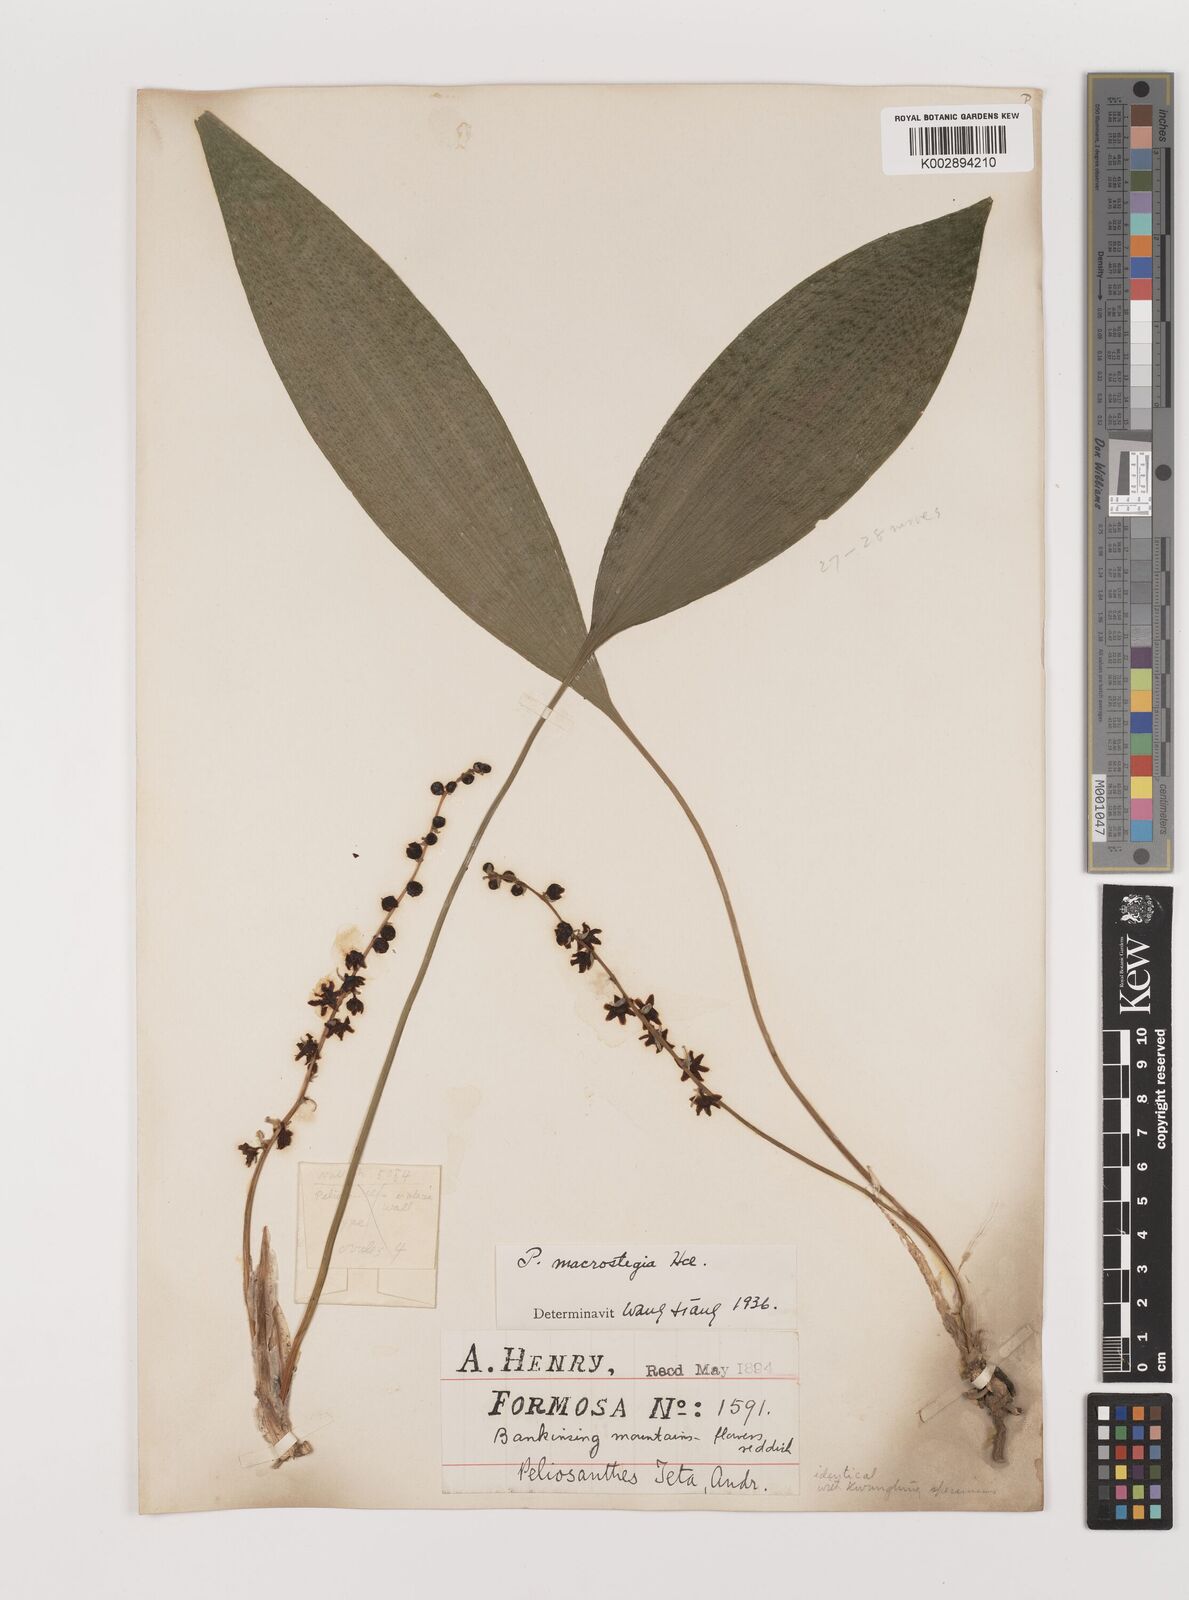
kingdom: Plantae
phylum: Tracheophyta
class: Liliopsida
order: Asparagales
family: Asparagaceae
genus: Peliosanthes
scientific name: Peliosanthes teta
